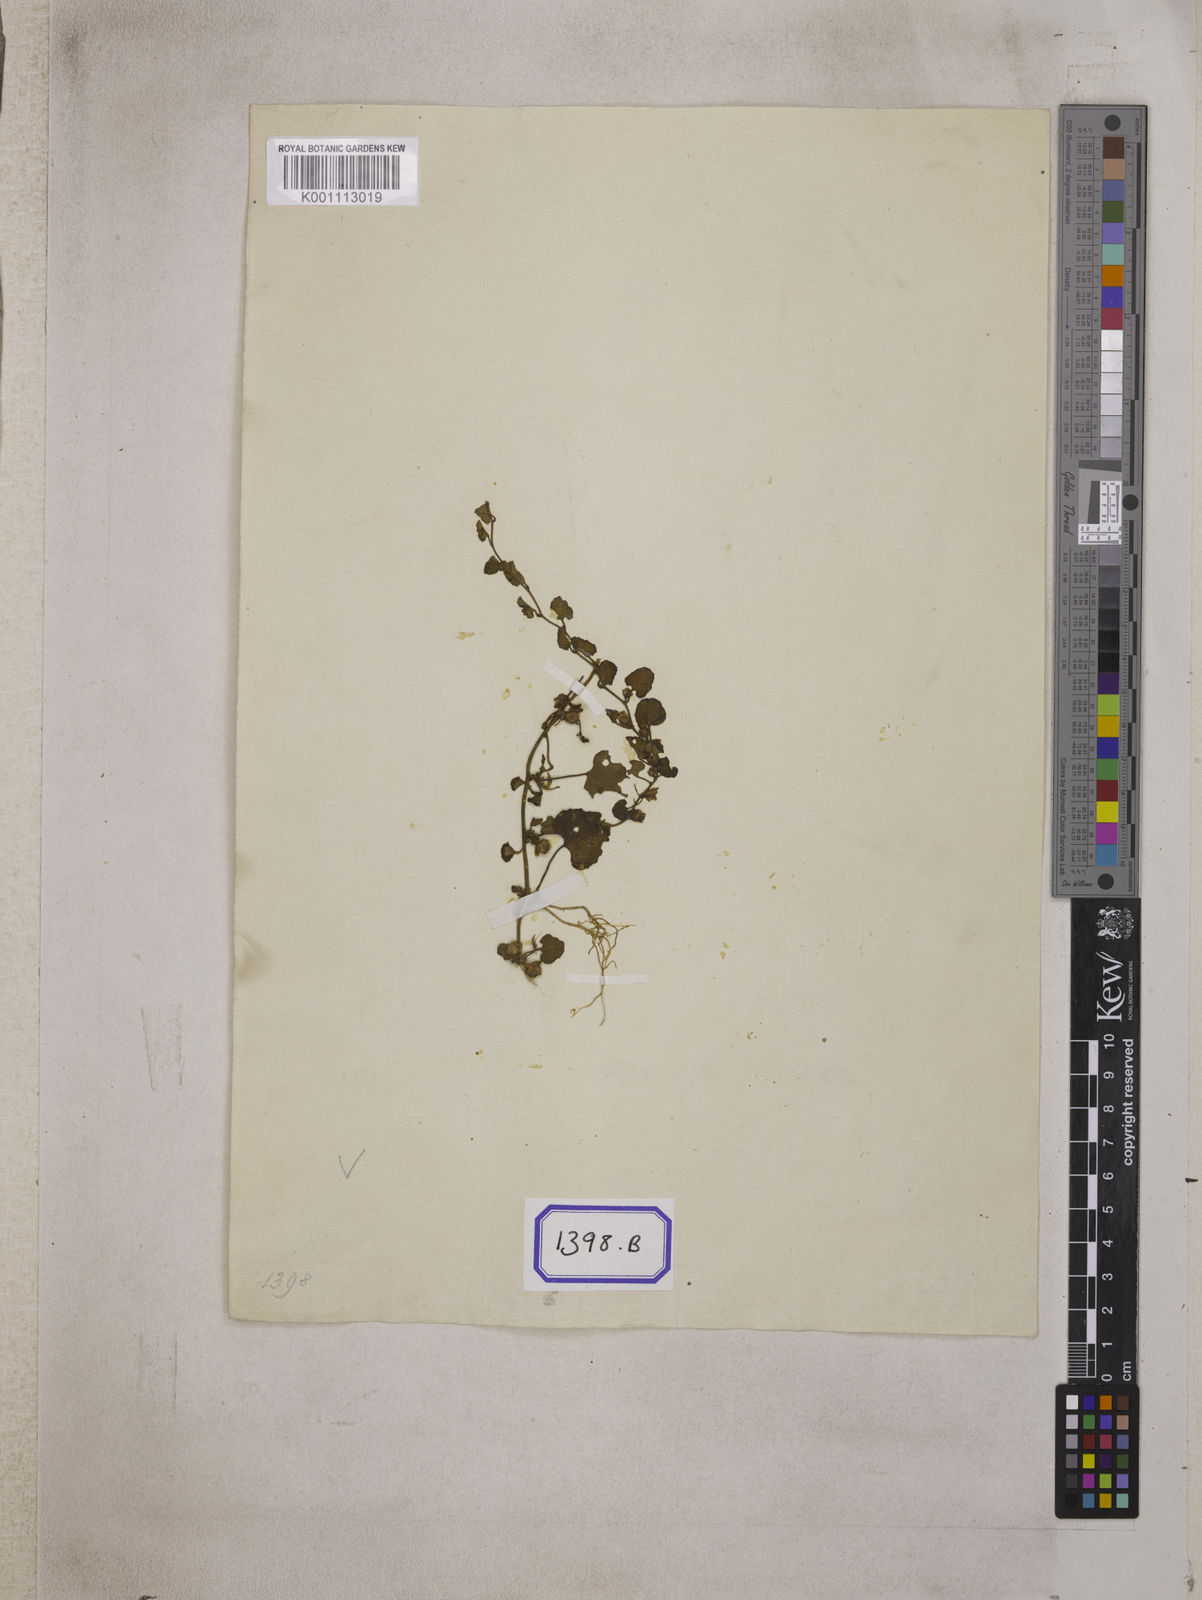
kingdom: Plantae
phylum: Tracheophyta
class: Magnoliopsida
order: Solanales
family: Convolvulaceae
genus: Merremia
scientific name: Merremia emarginata
